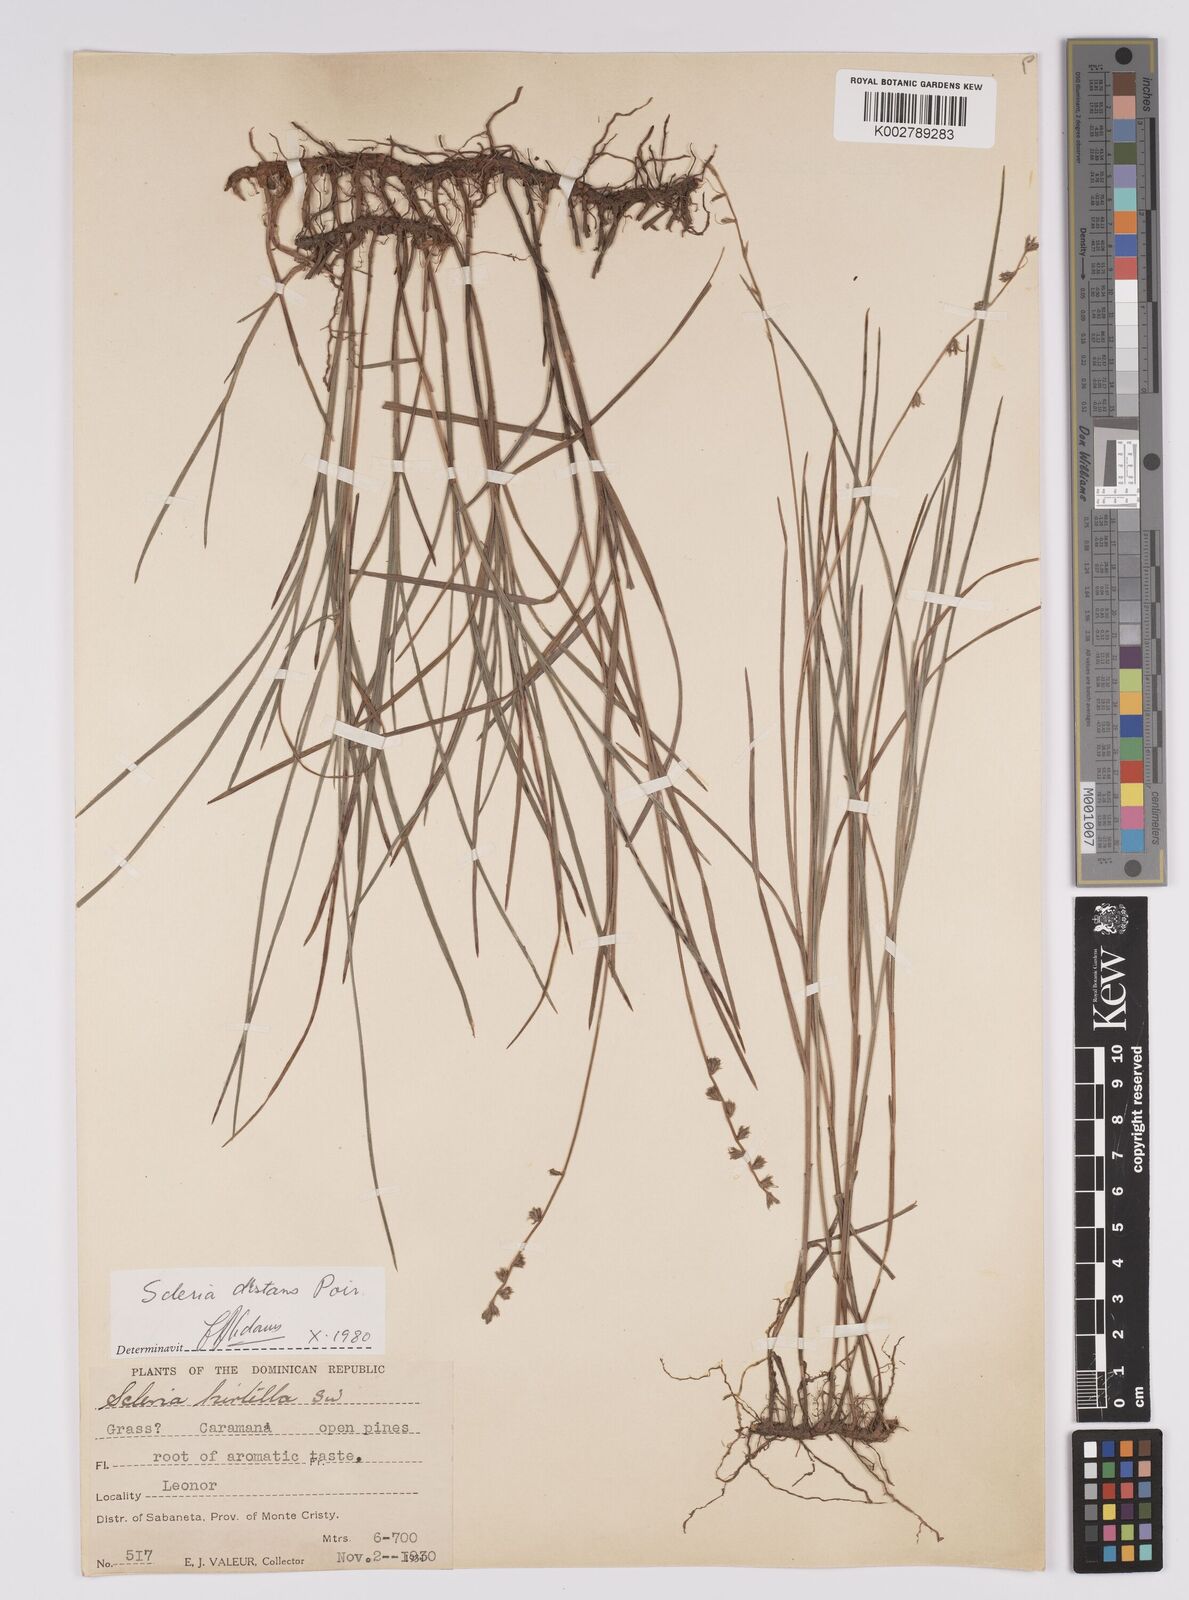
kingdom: Plantae
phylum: Tracheophyta
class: Liliopsida
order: Poales
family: Cyperaceae
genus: Scleria
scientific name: Scleria distans
